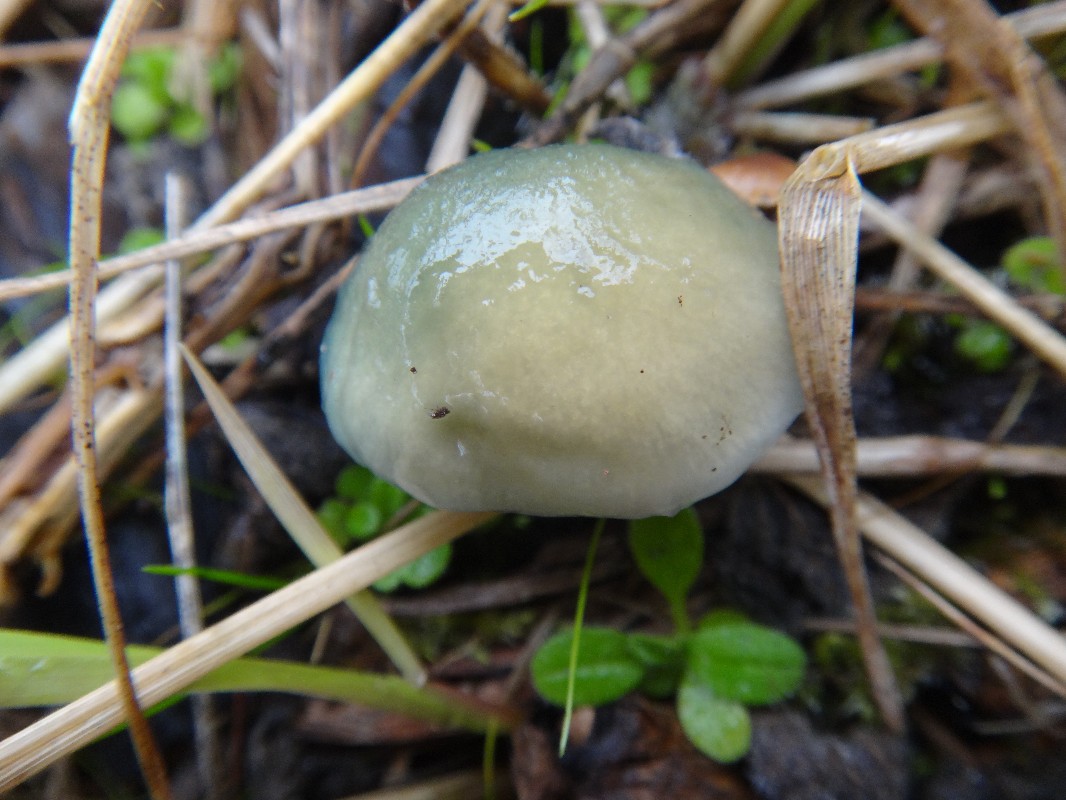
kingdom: Fungi
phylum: Basidiomycota
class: Agaricomycetes
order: Agaricales
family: Strophariaceae
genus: Stropharia
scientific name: Stropharia cyanea
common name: blågrøn bredblad
